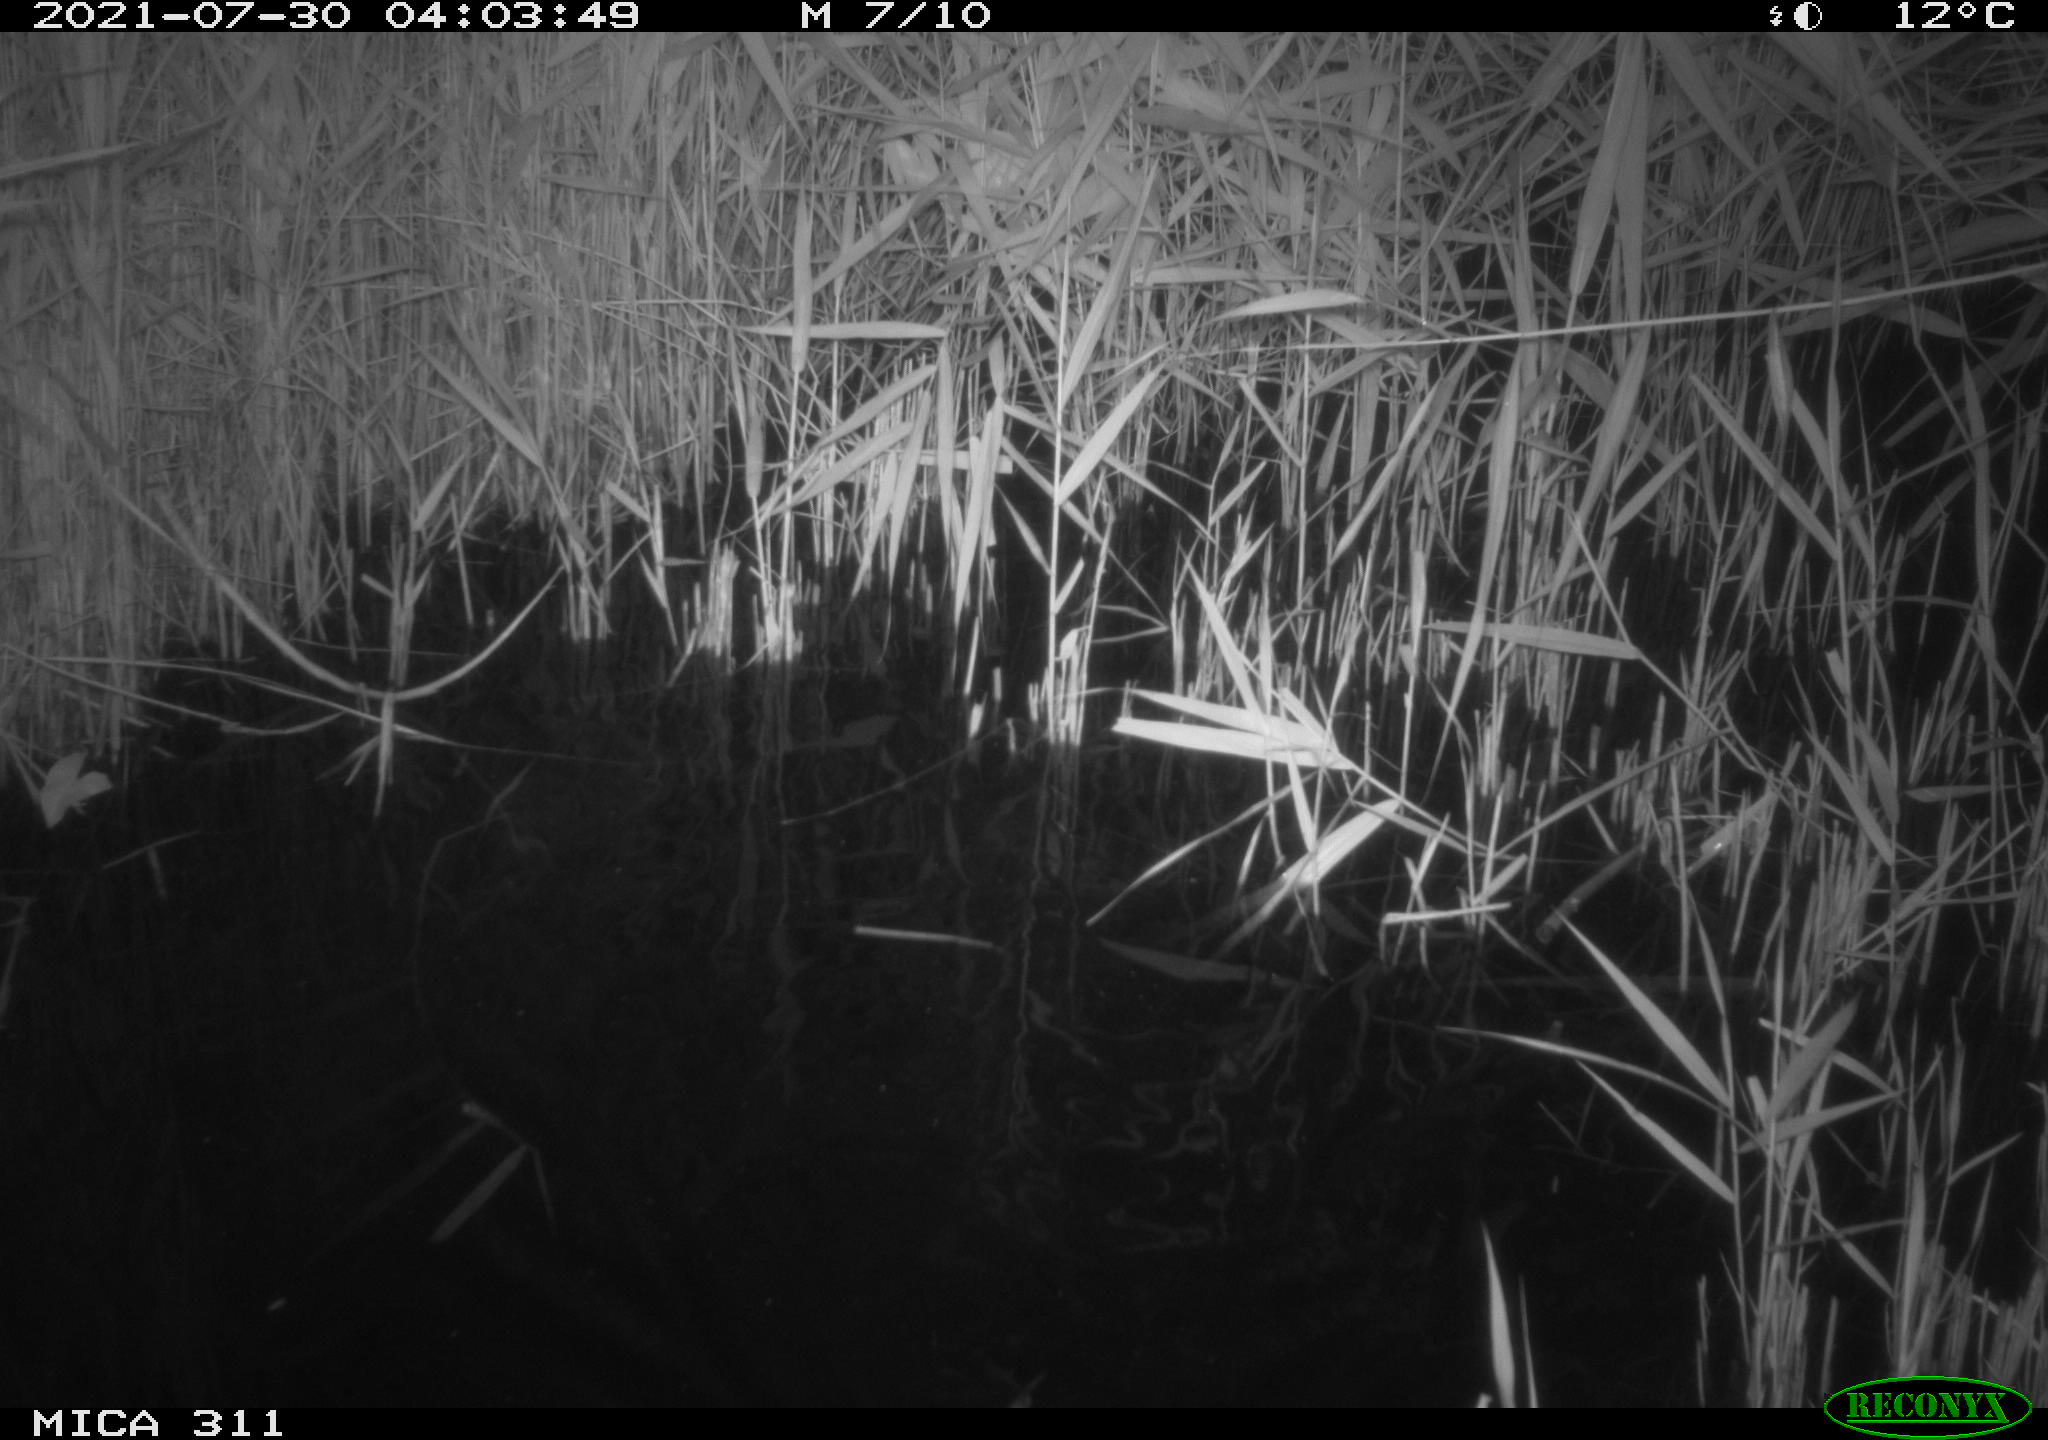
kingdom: Animalia
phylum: Chordata
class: Mammalia
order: Rodentia
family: Muridae
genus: Rattus
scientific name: Rattus norvegicus
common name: Brown rat
